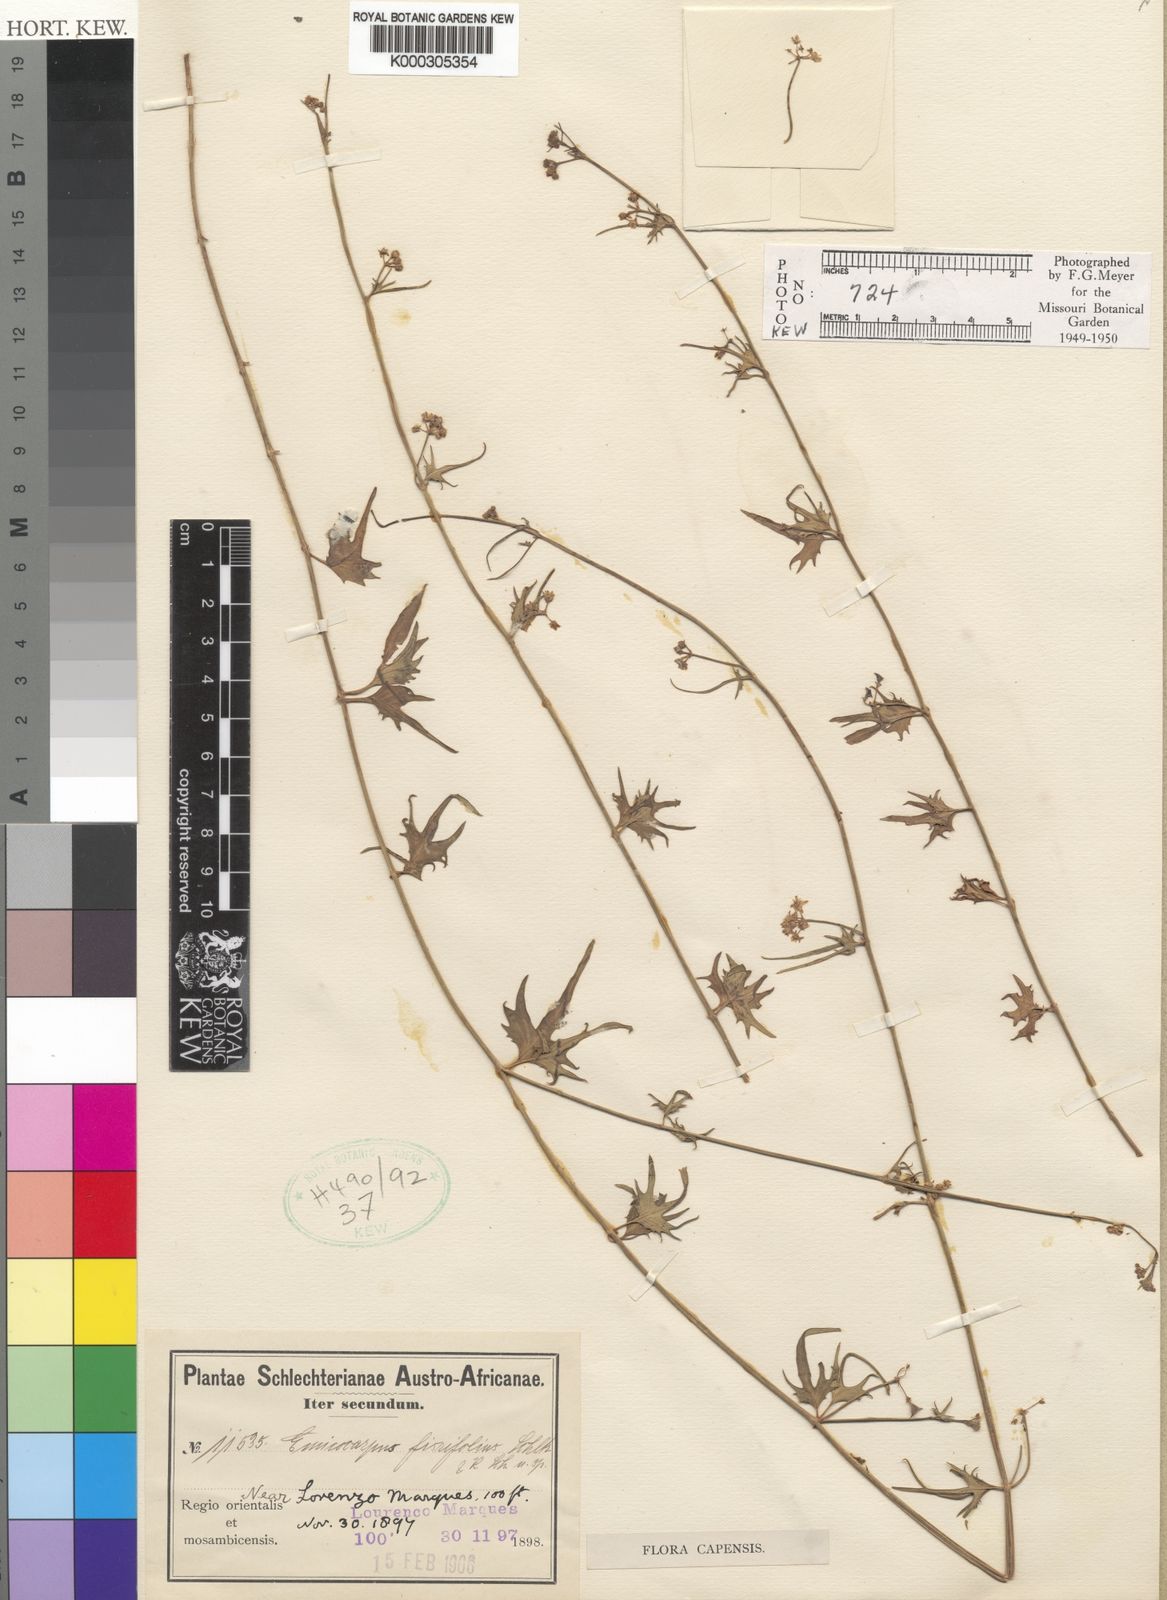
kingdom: Plantae
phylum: Tracheophyta
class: Magnoliopsida
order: Gentianales
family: Apocynaceae
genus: Emicocarpus
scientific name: Emicocarpus fissifolius
